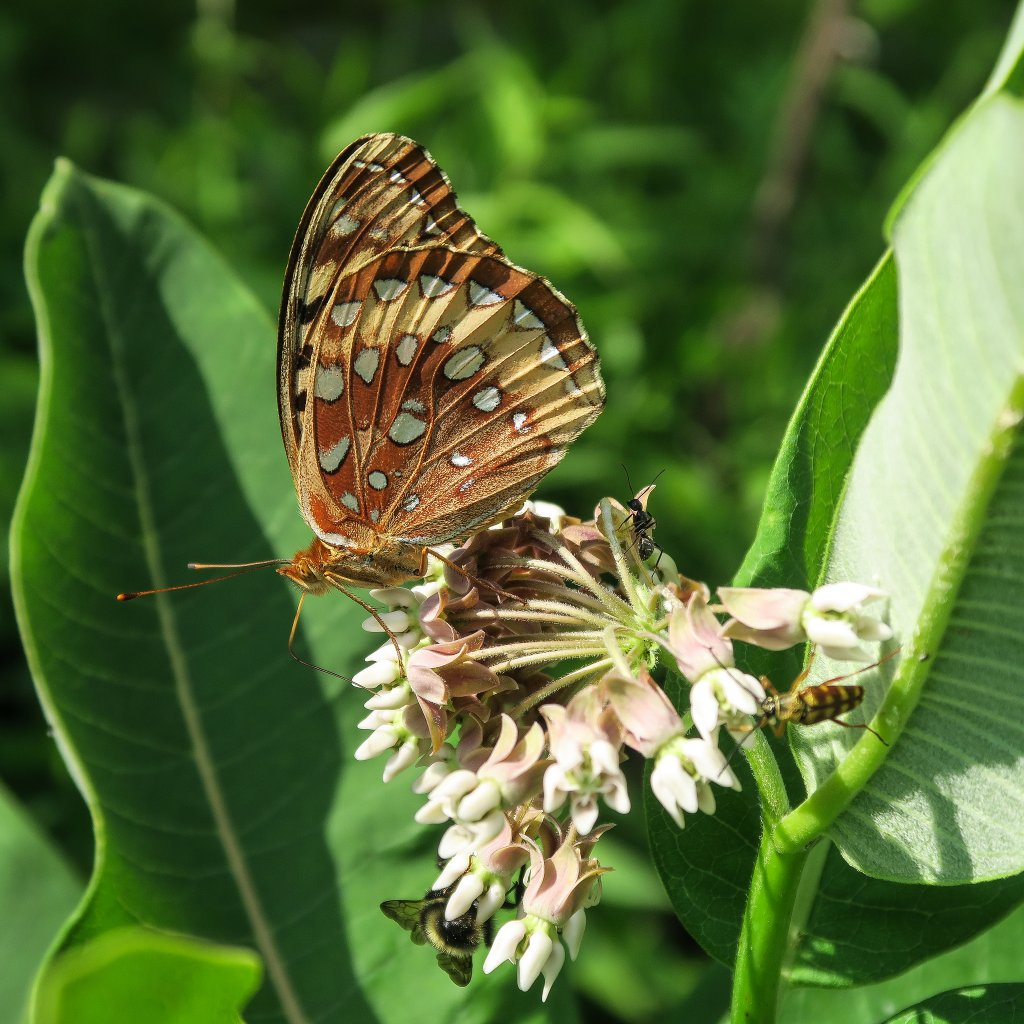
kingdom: Animalia
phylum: Arthropoda
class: Insecta
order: Lepidoptera
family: Nymphalidae
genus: Speyeria
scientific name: Speyeria cybele
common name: Great Spangled Fritillary
